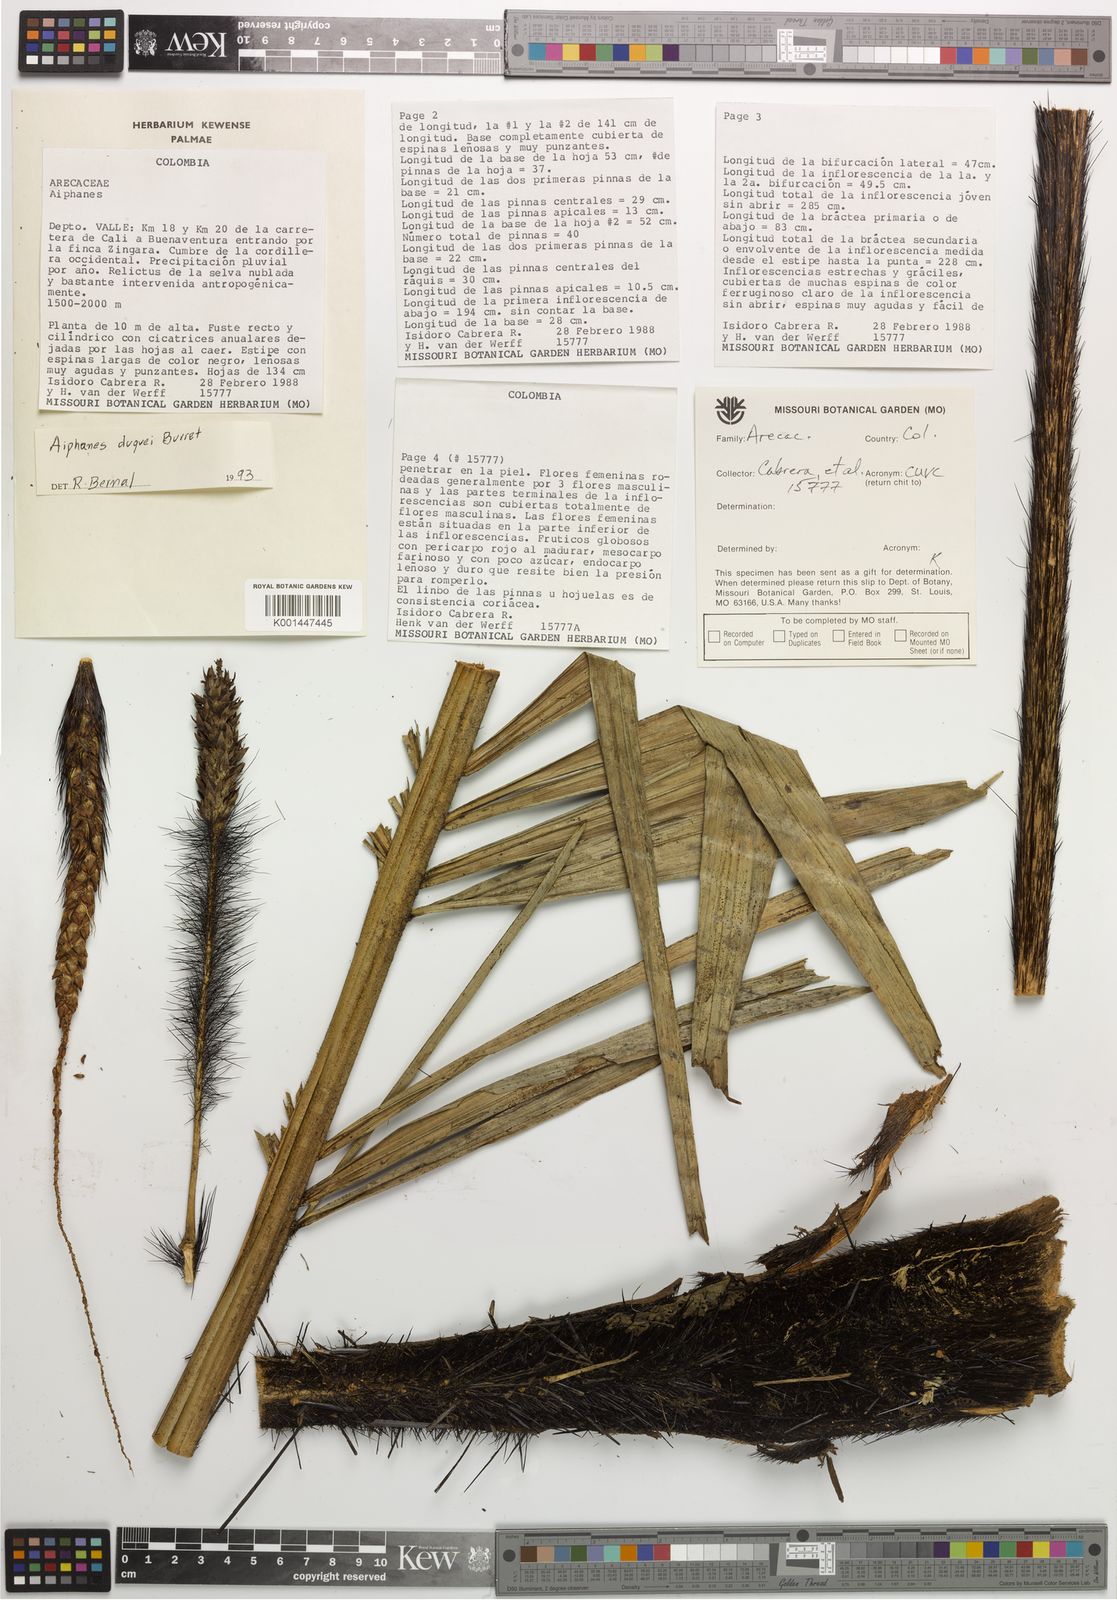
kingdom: Plantae
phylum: Tracheophyta
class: Liliopsida
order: Arecales
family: Arecaceae
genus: Aiphanes
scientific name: Aiphanes duquei
